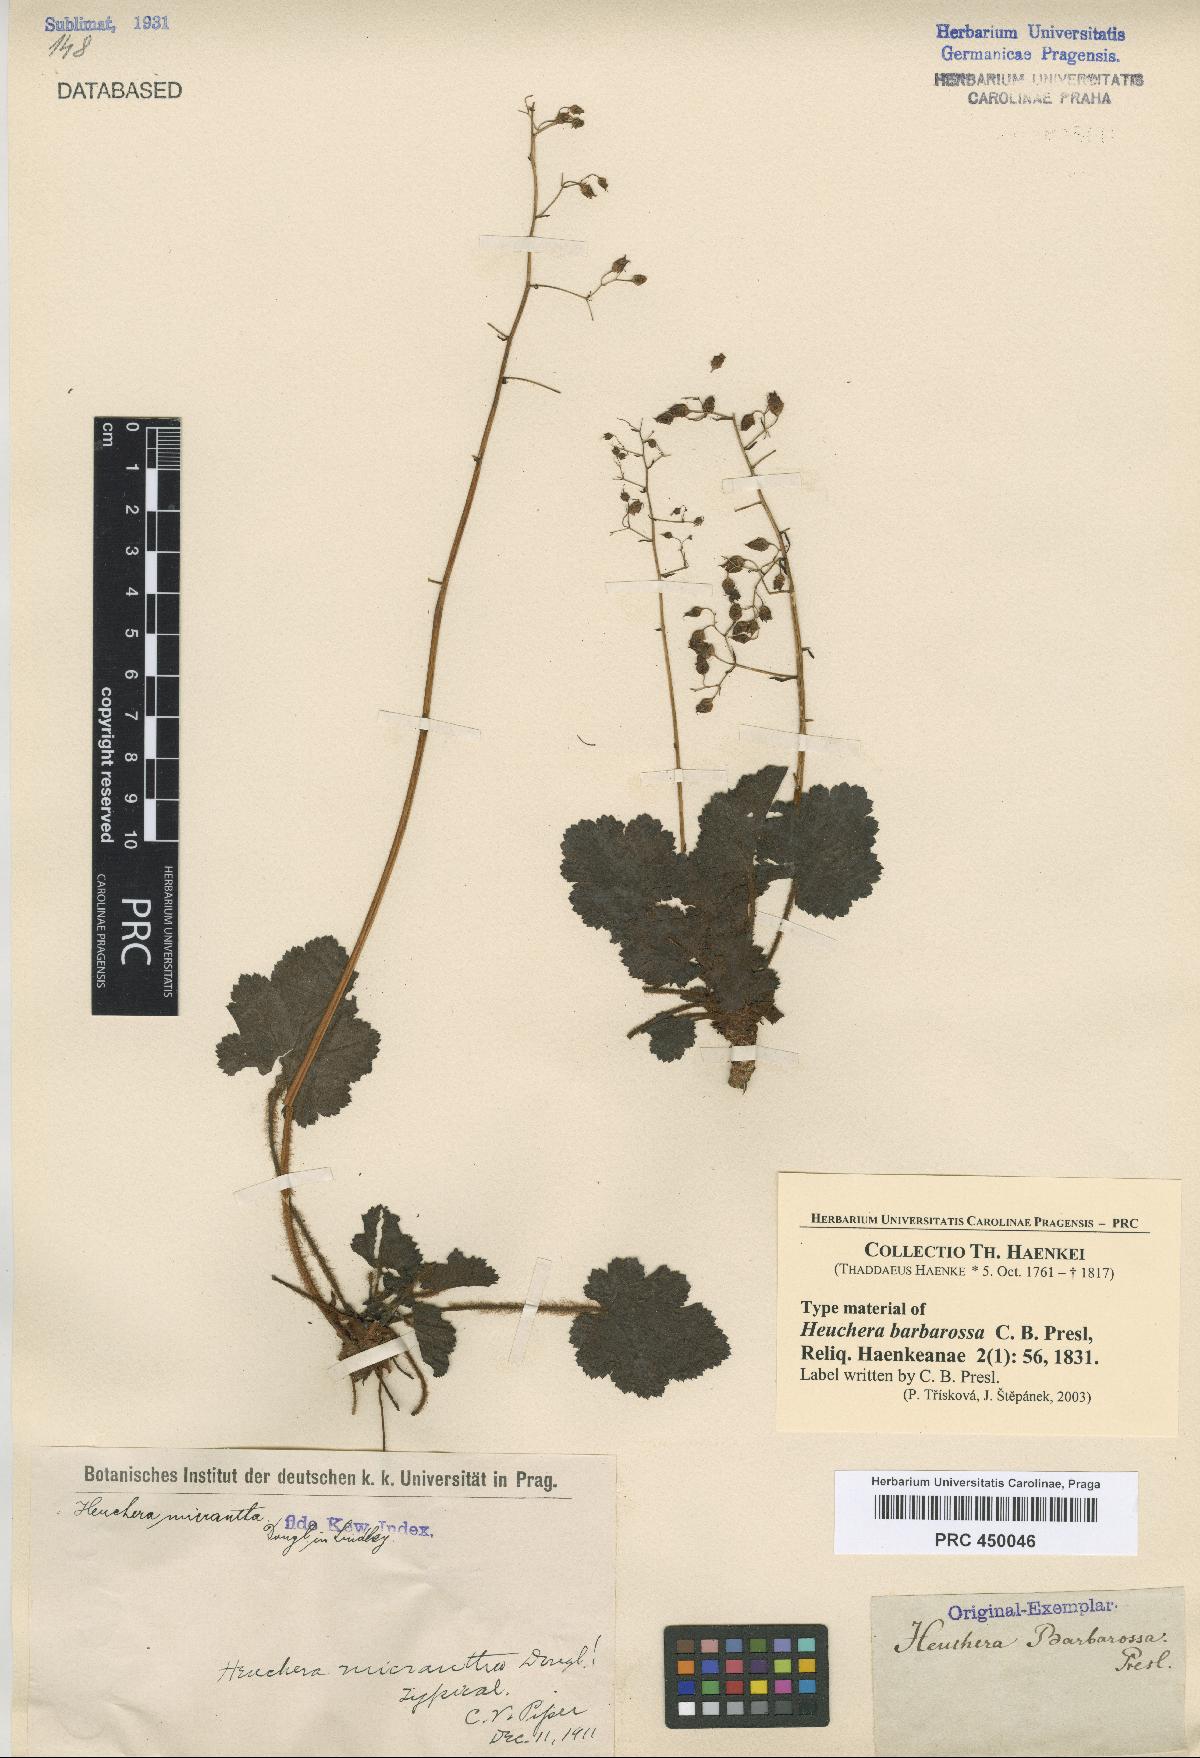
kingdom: Plantae
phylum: Tracheophyta
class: Magnoliopsida
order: Saxifragales
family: Saxifragaceae
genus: Heuchera
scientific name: Heuchera micrantha
